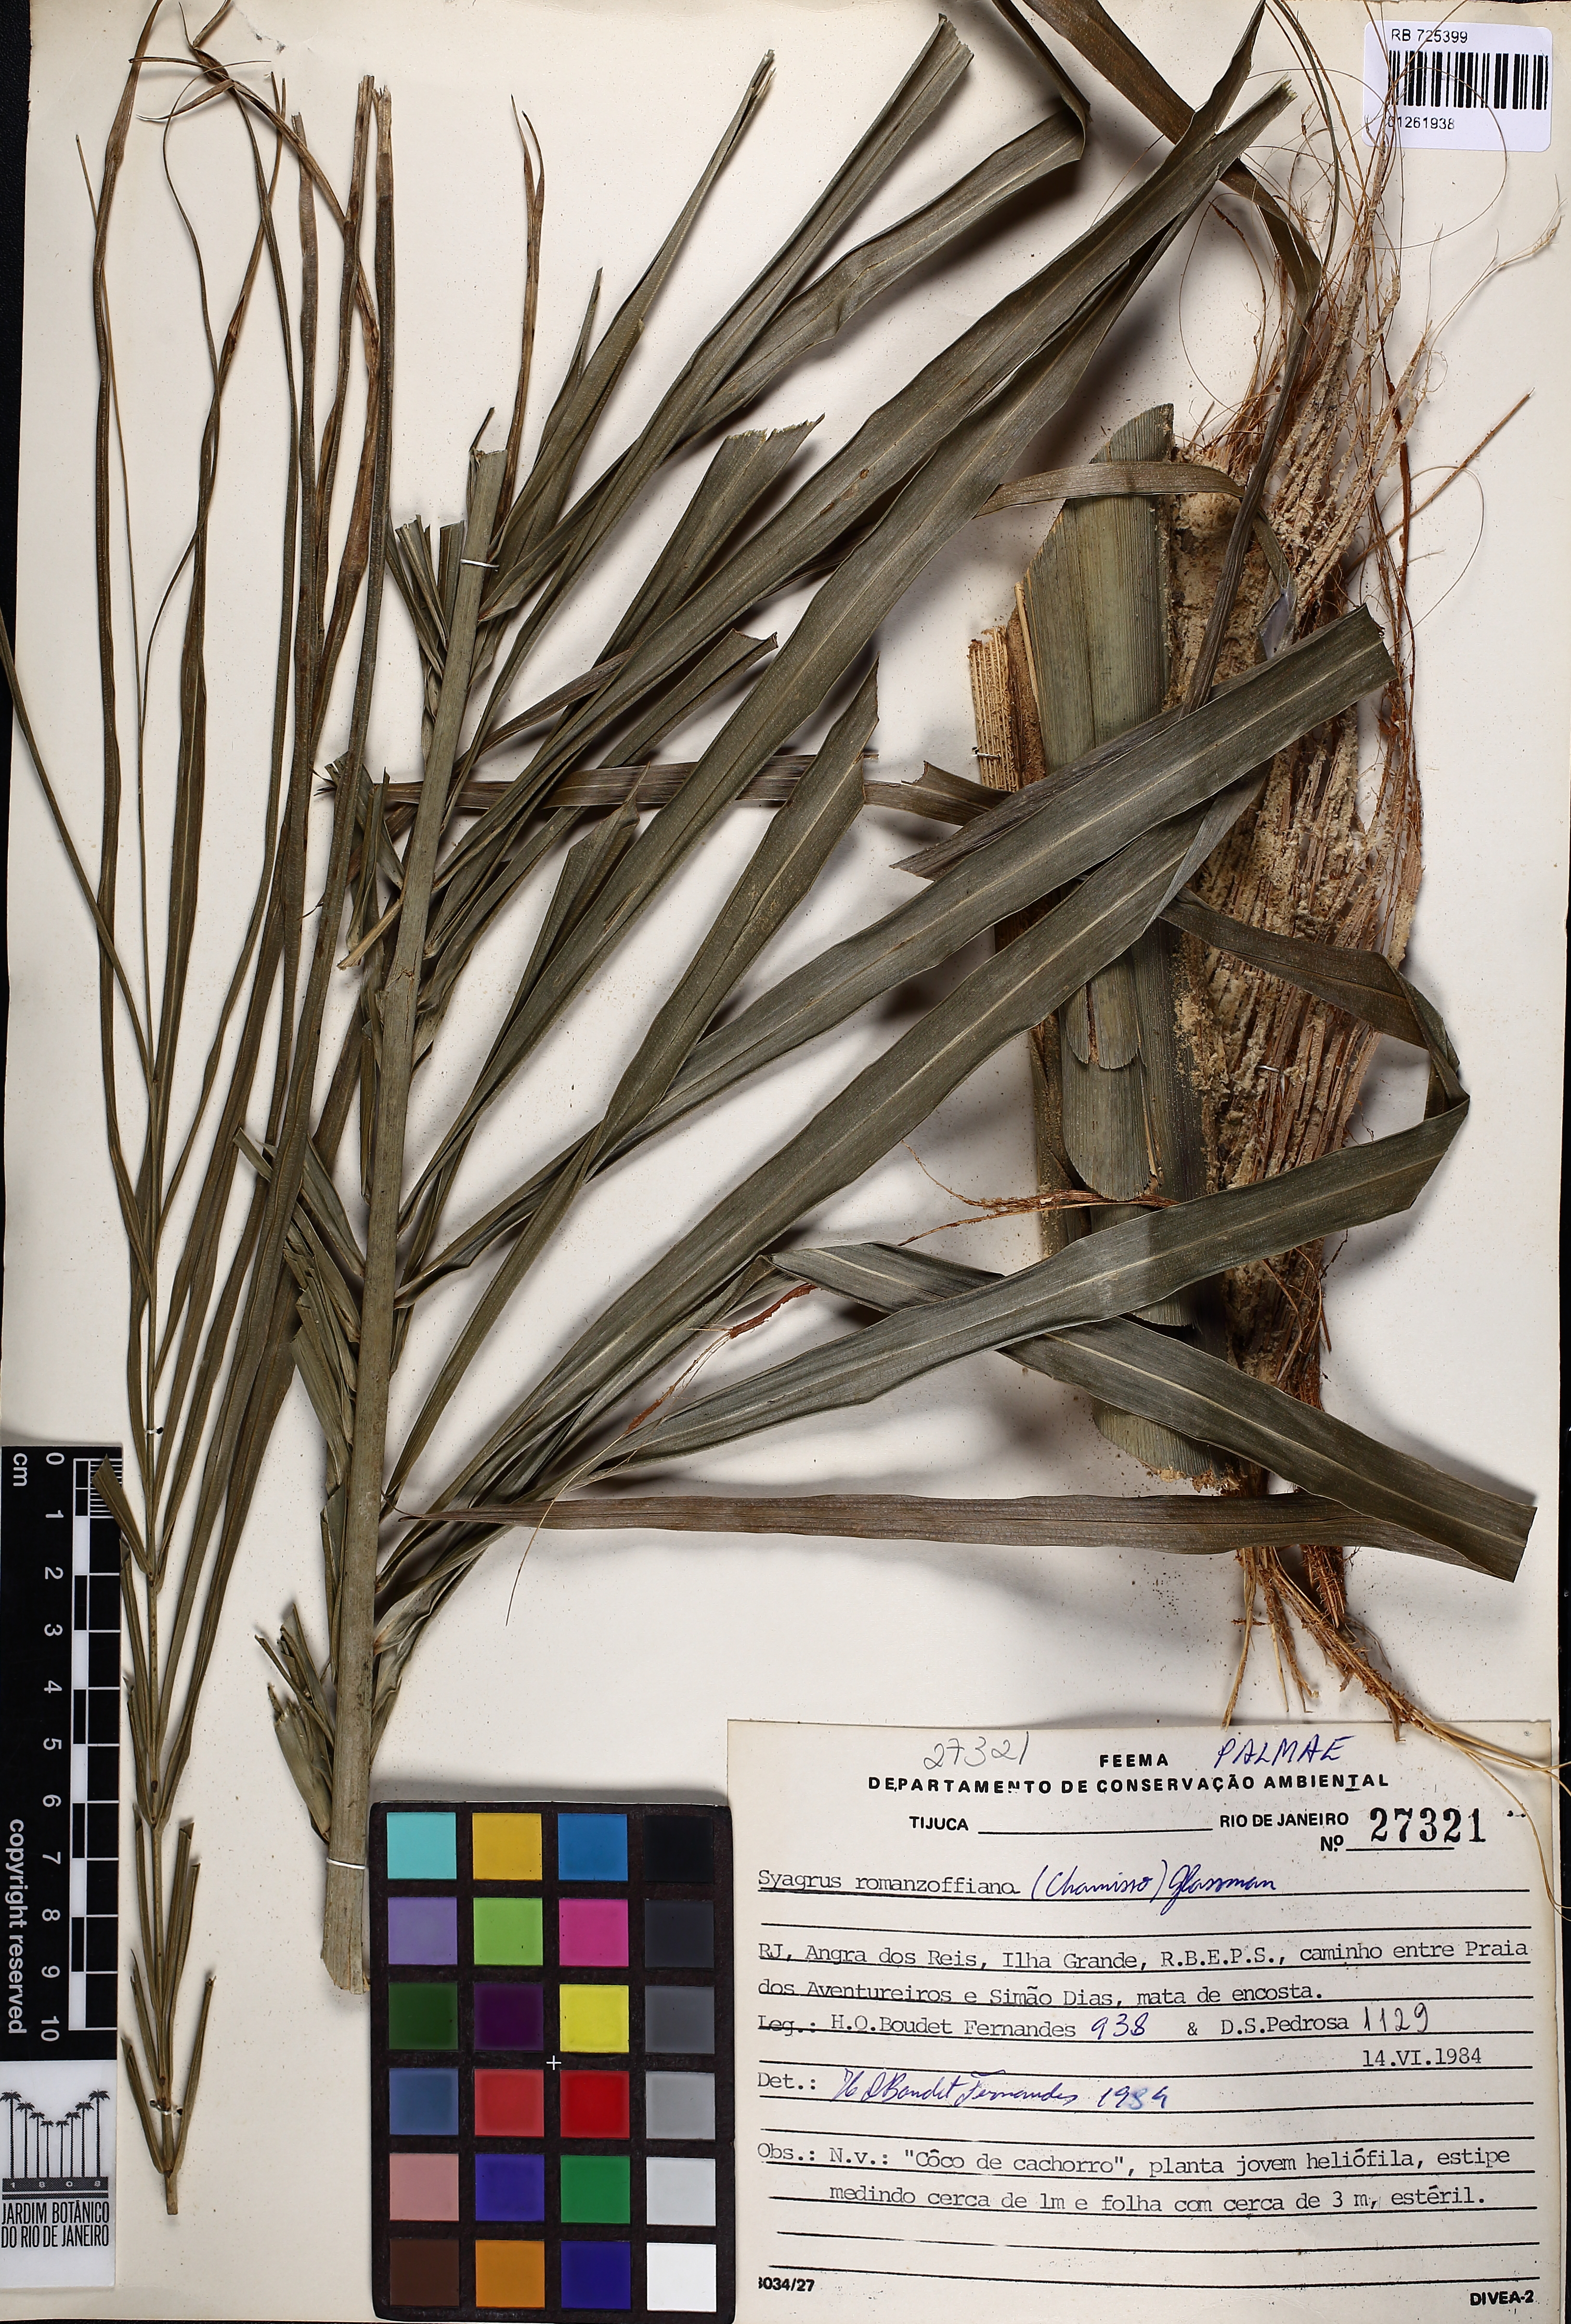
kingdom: Plantae
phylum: Tracheophyta
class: Liliopsida
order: Arecales
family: Arecaceae
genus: Syagrus
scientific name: Syagrus romanzoffiana
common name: Queen palm
